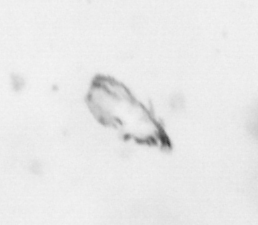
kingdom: Animalia
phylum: Arthropoda
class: Maxillopoda
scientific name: Maxillopoda
